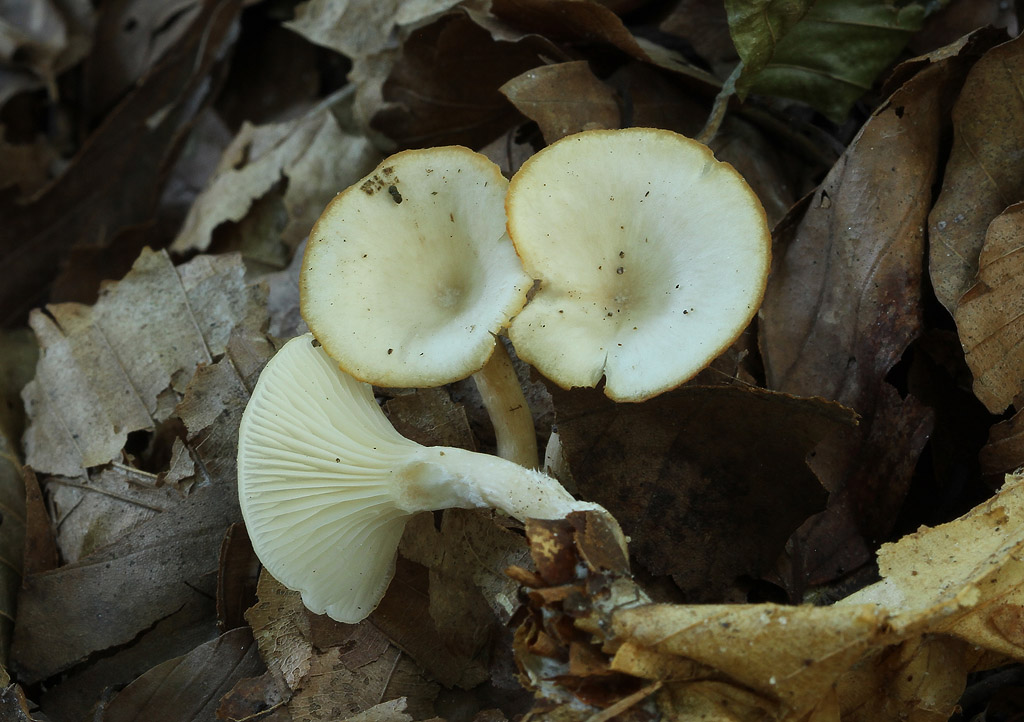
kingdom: Fungi
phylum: Basidiomycota
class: Agaricomycetes
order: Agaricales
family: Tricholomataceae
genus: Clitocybe
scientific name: Clitocybe phaeophthalma
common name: stinkende tragthat
